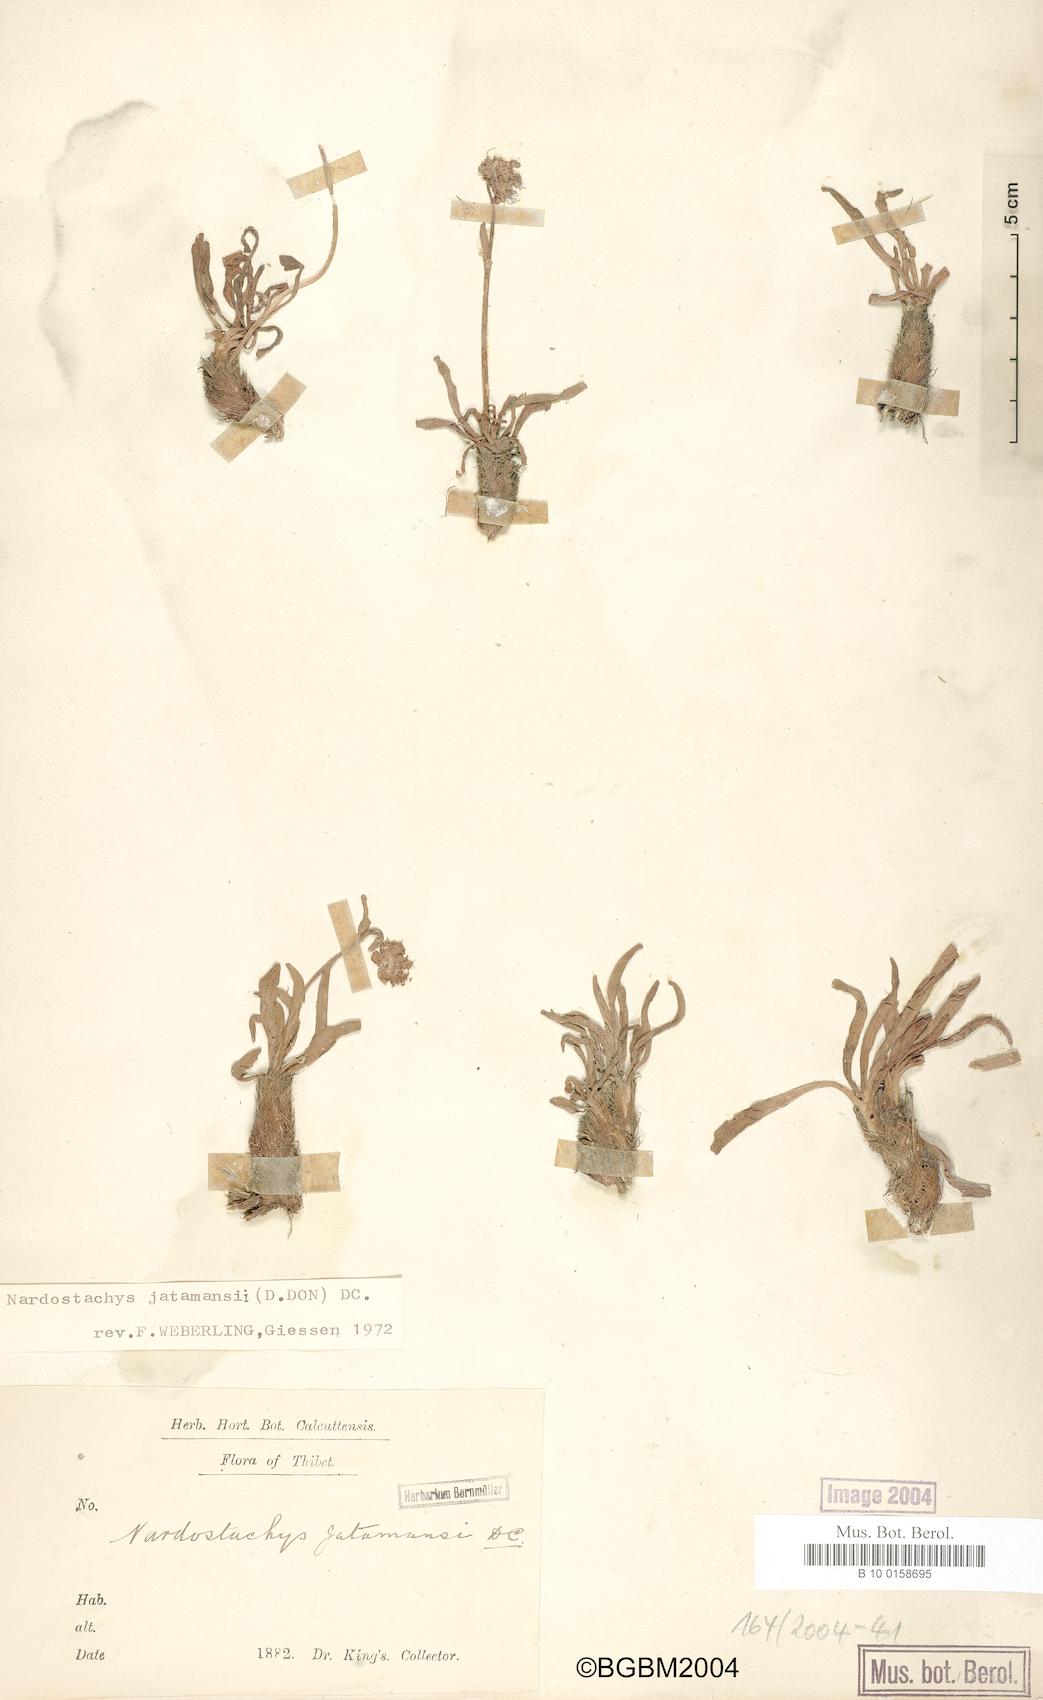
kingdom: Plantae
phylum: Tracheophyta
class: Magnoliopsida
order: Dipsacales
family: Caprifoliaceae
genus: Nardostachys
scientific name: Nardostachys jatamansi
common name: Indian nard
